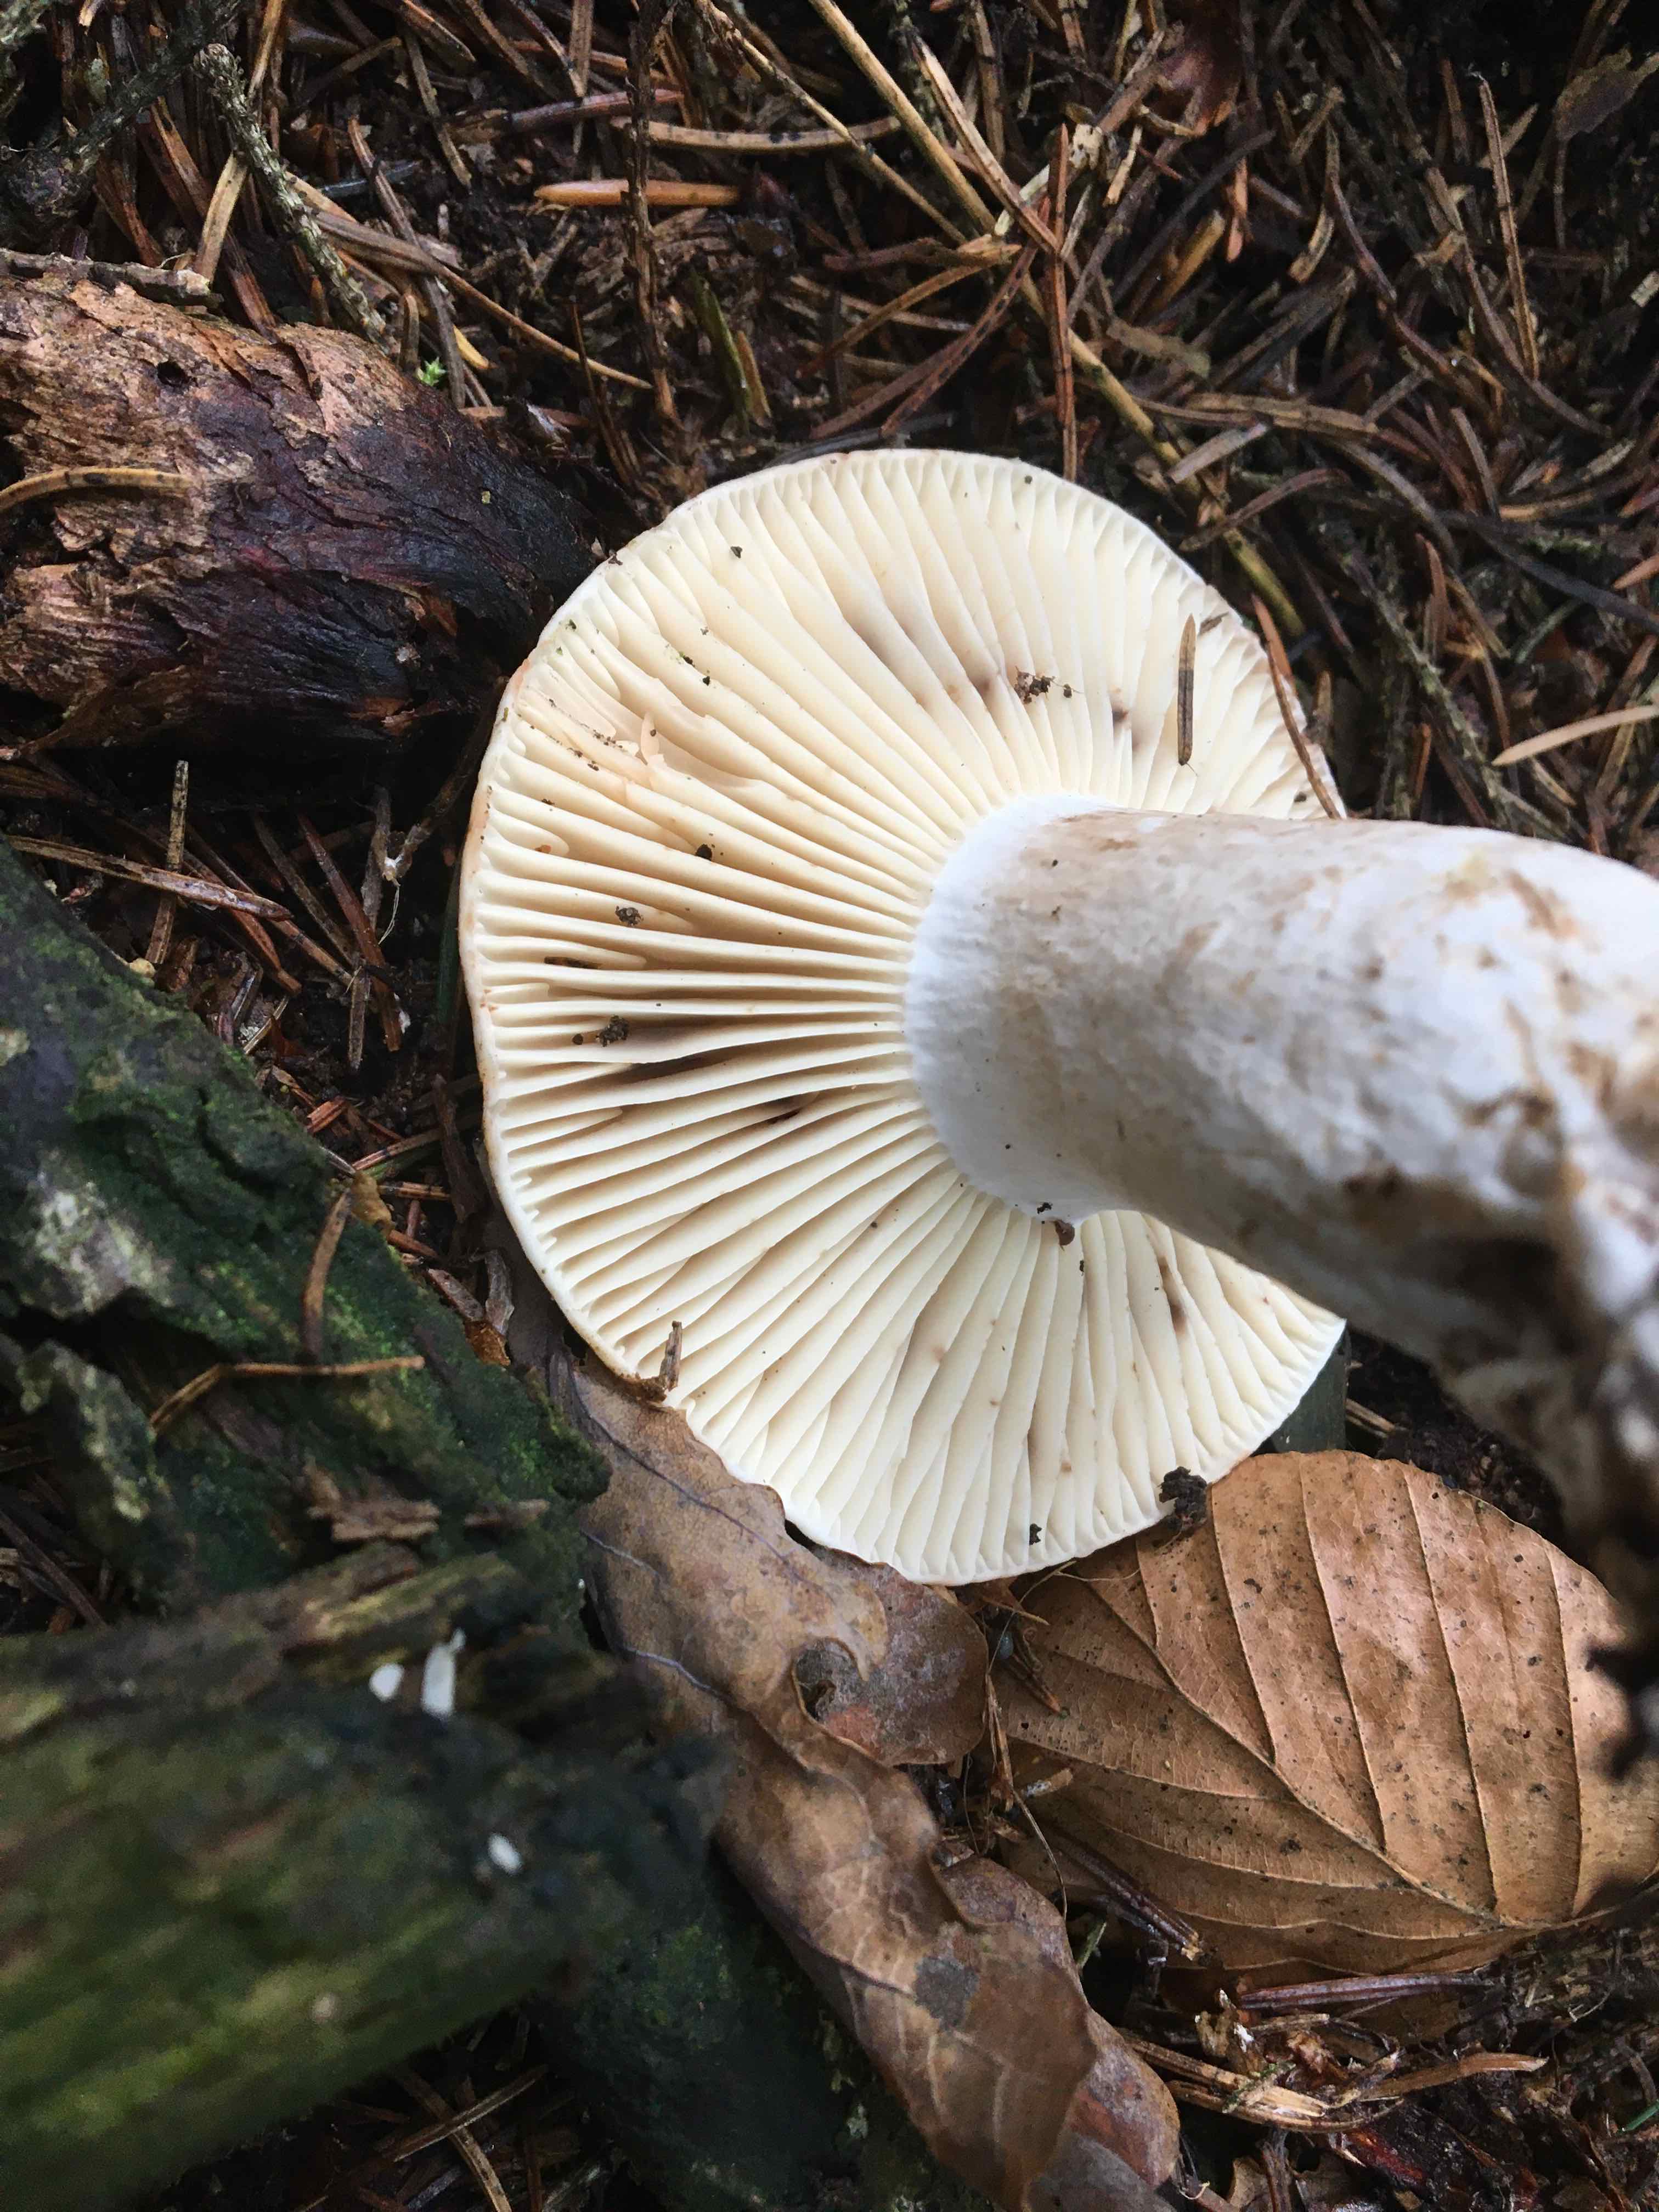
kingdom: Fungi
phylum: Basidiomycota
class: Agaricomycetes
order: Russulales
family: Russulaceae
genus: Russula
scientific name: Russula adusta
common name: sværtende skørhat
